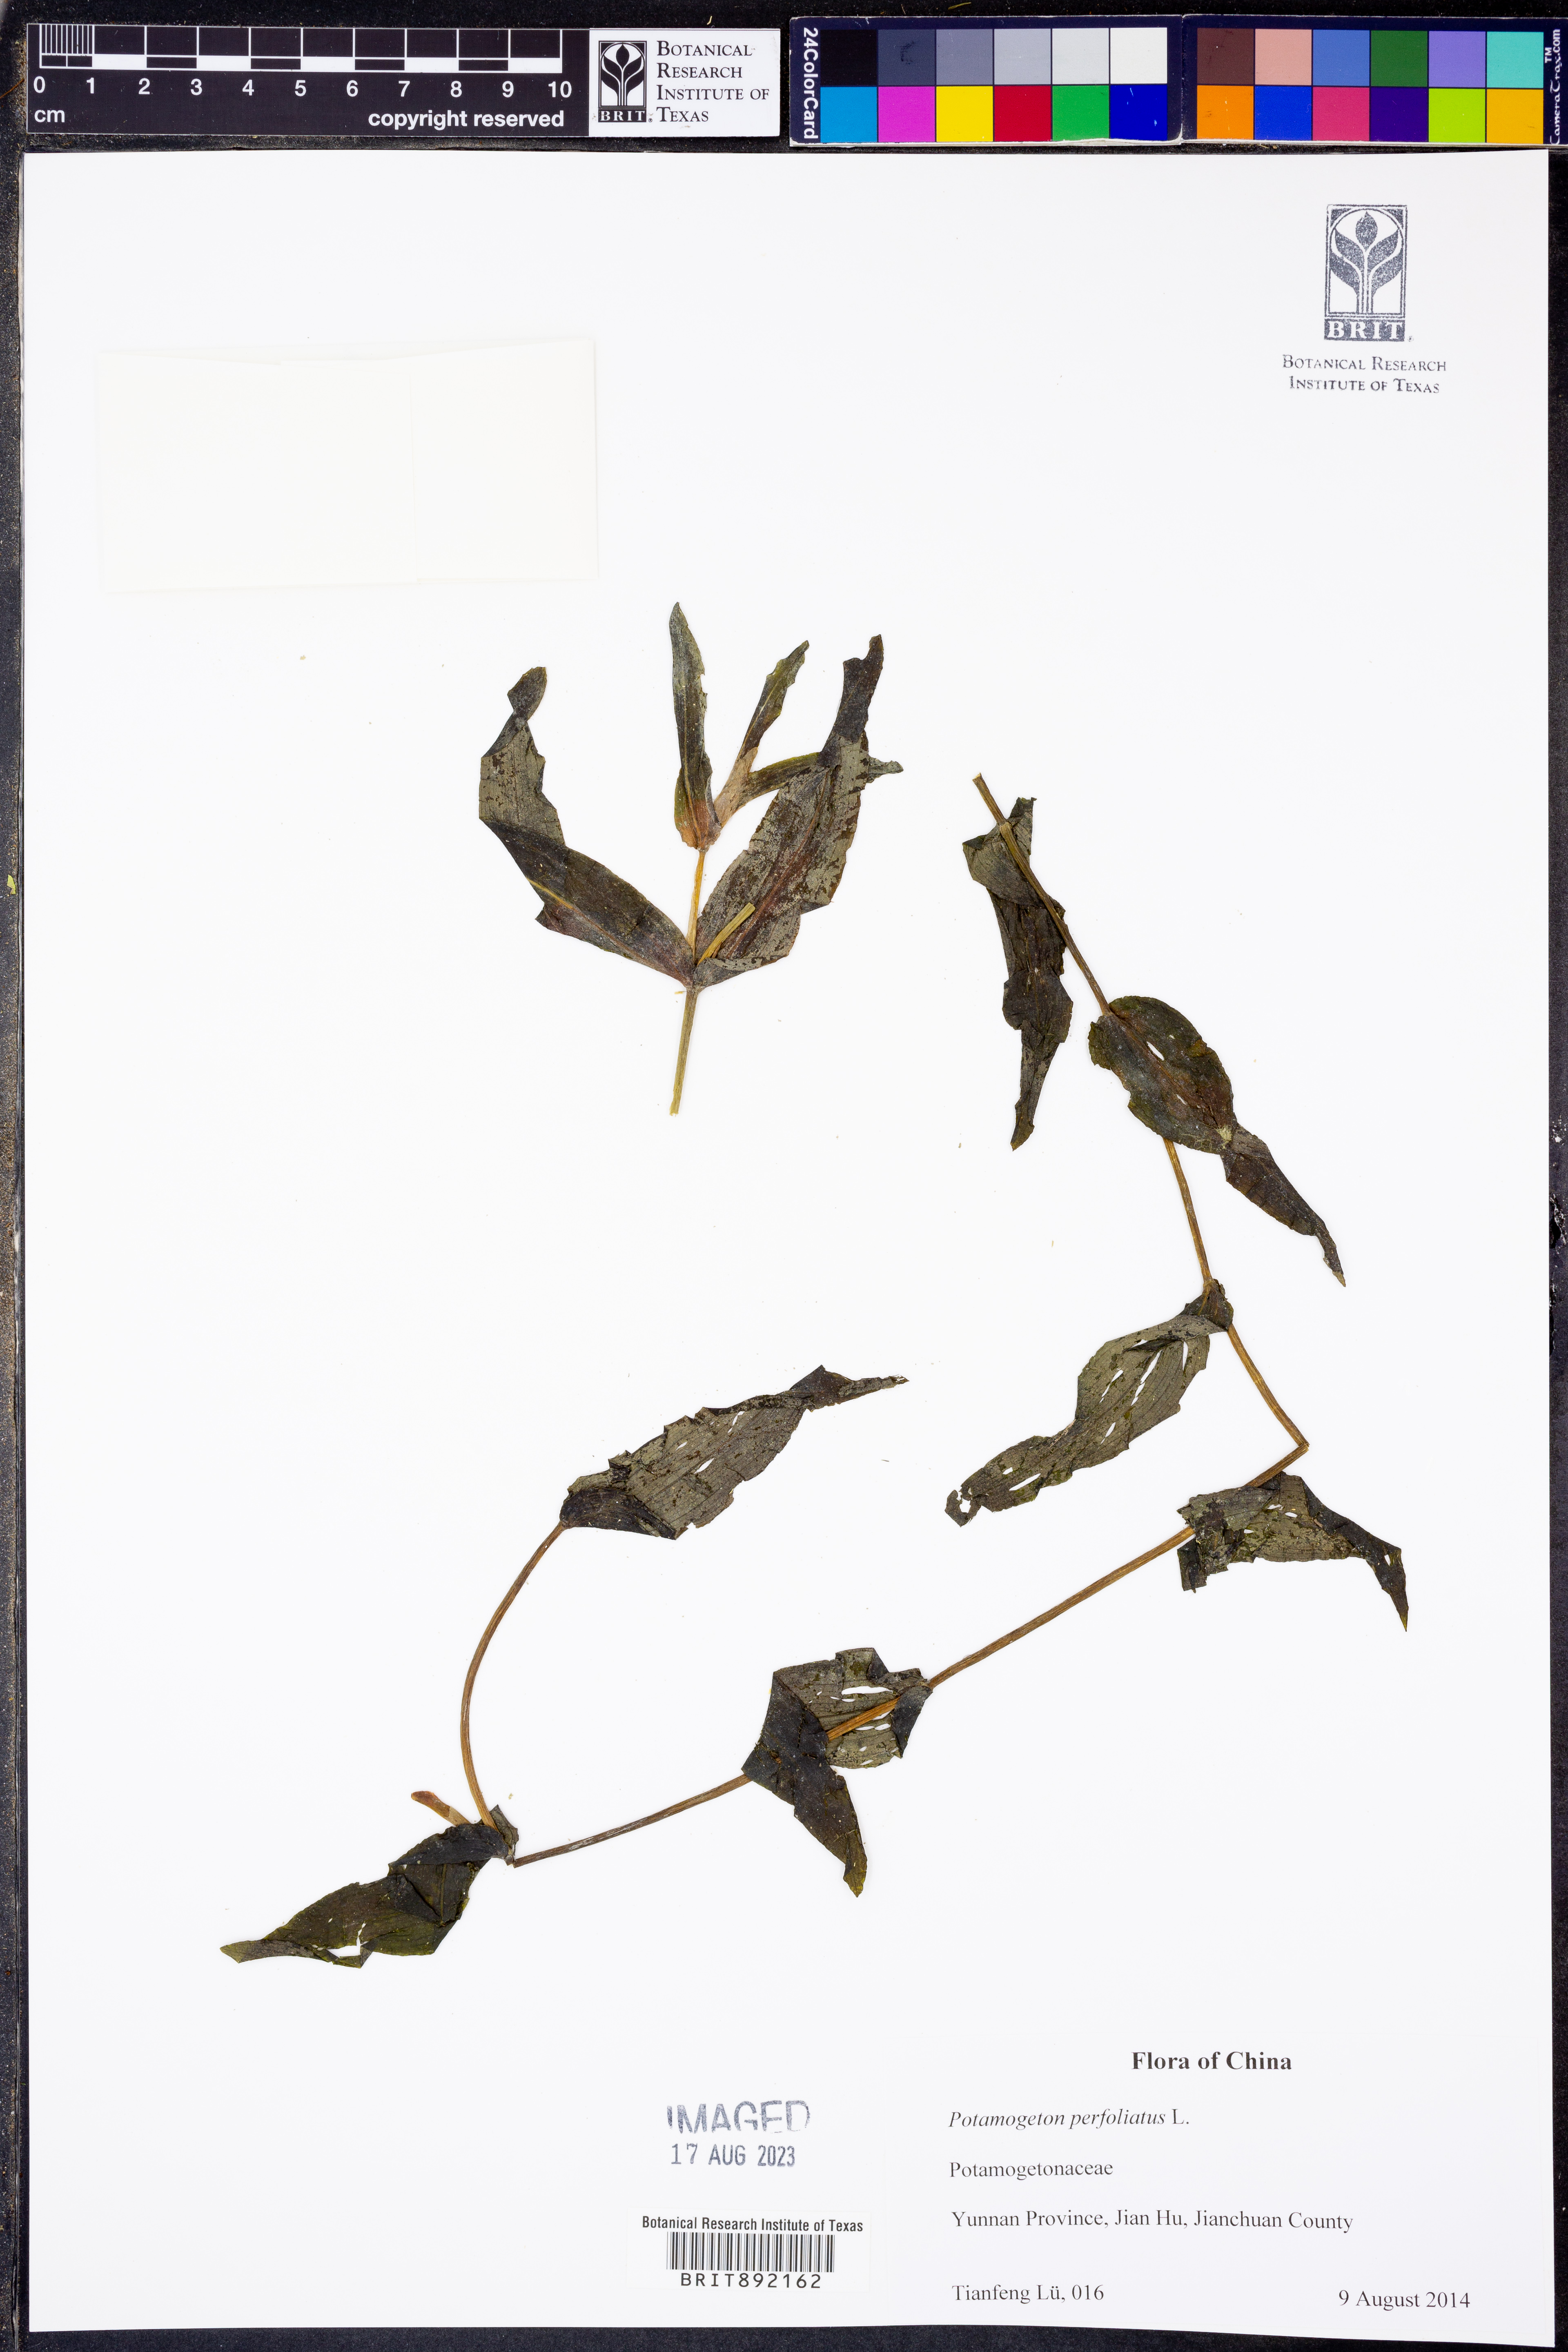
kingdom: Plantae
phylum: Tracheophyta
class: Liliopsida
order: Alismatales
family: Potamogetonaceae
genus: Potamogeton
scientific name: Potamogeton perfoliatus
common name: Perfoliate pondweed
